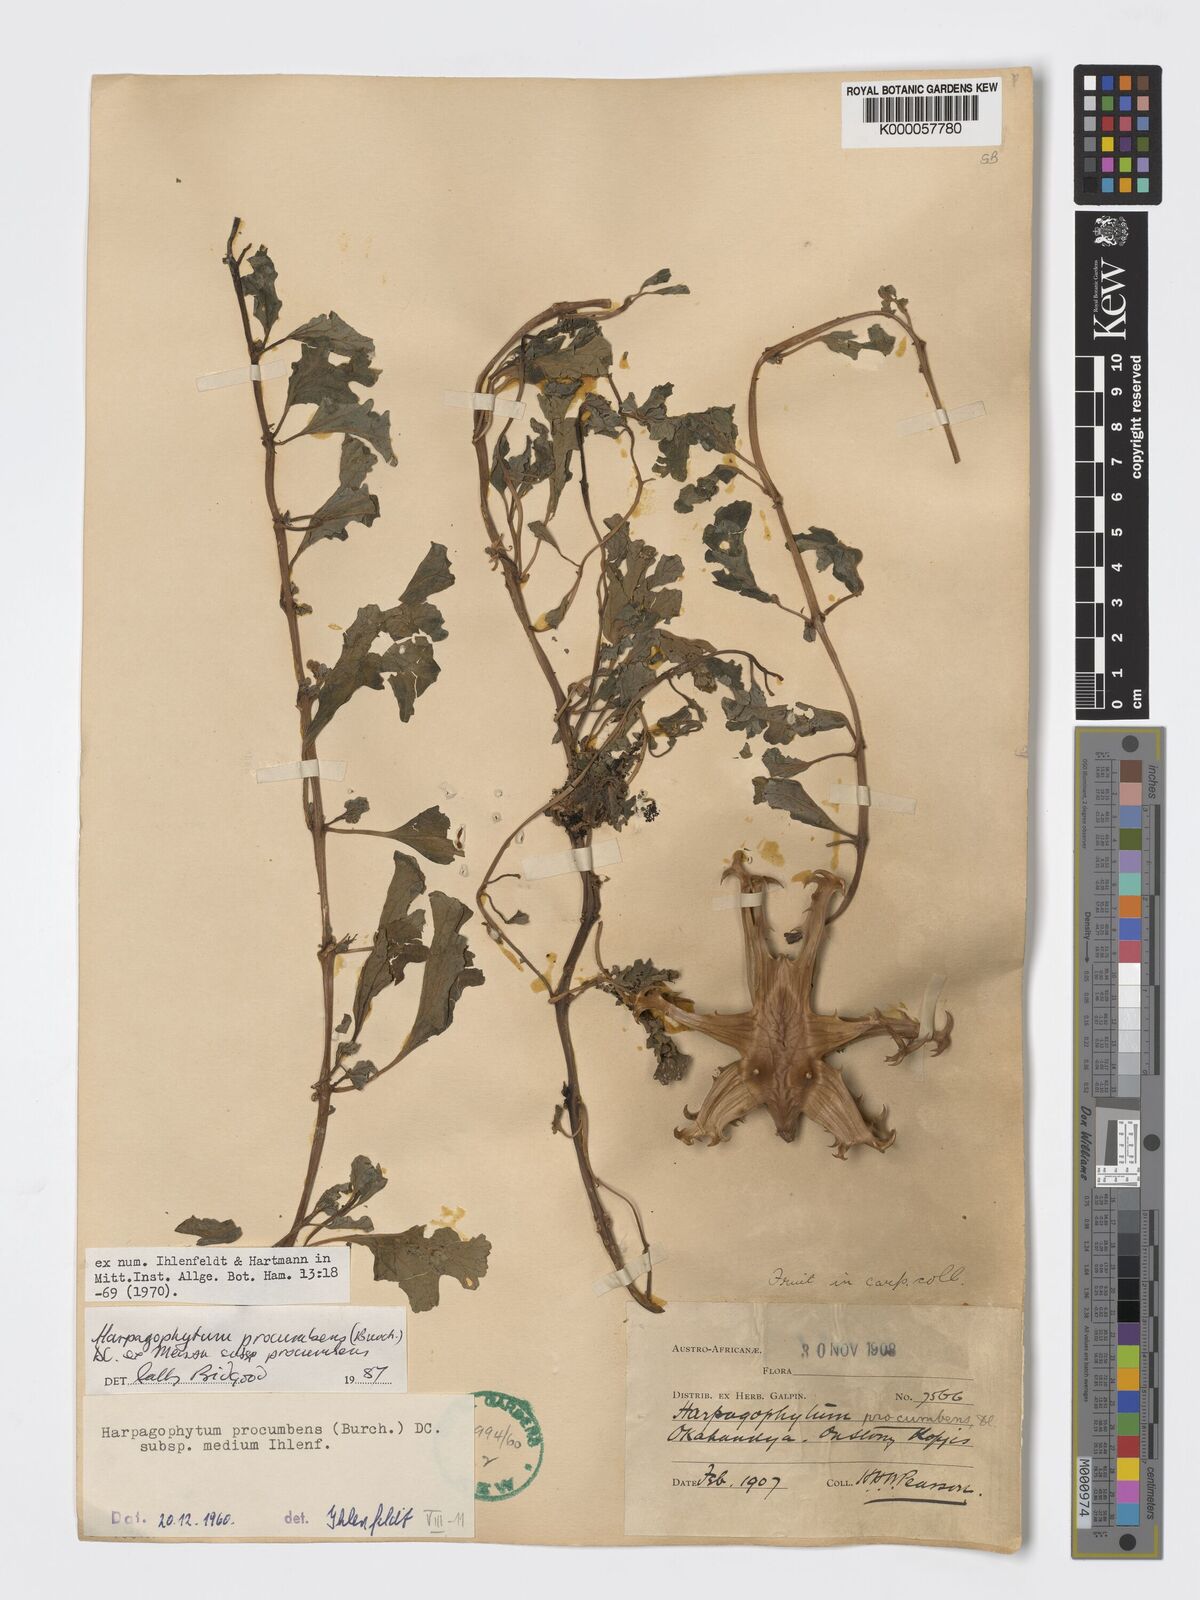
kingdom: Plantae
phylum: Tracheophyta
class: Magnoliopsida
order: Lamiales
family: Pedaliaceae
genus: Harpagophytum
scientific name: Harpagophytum procumbens
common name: Grappleplant
